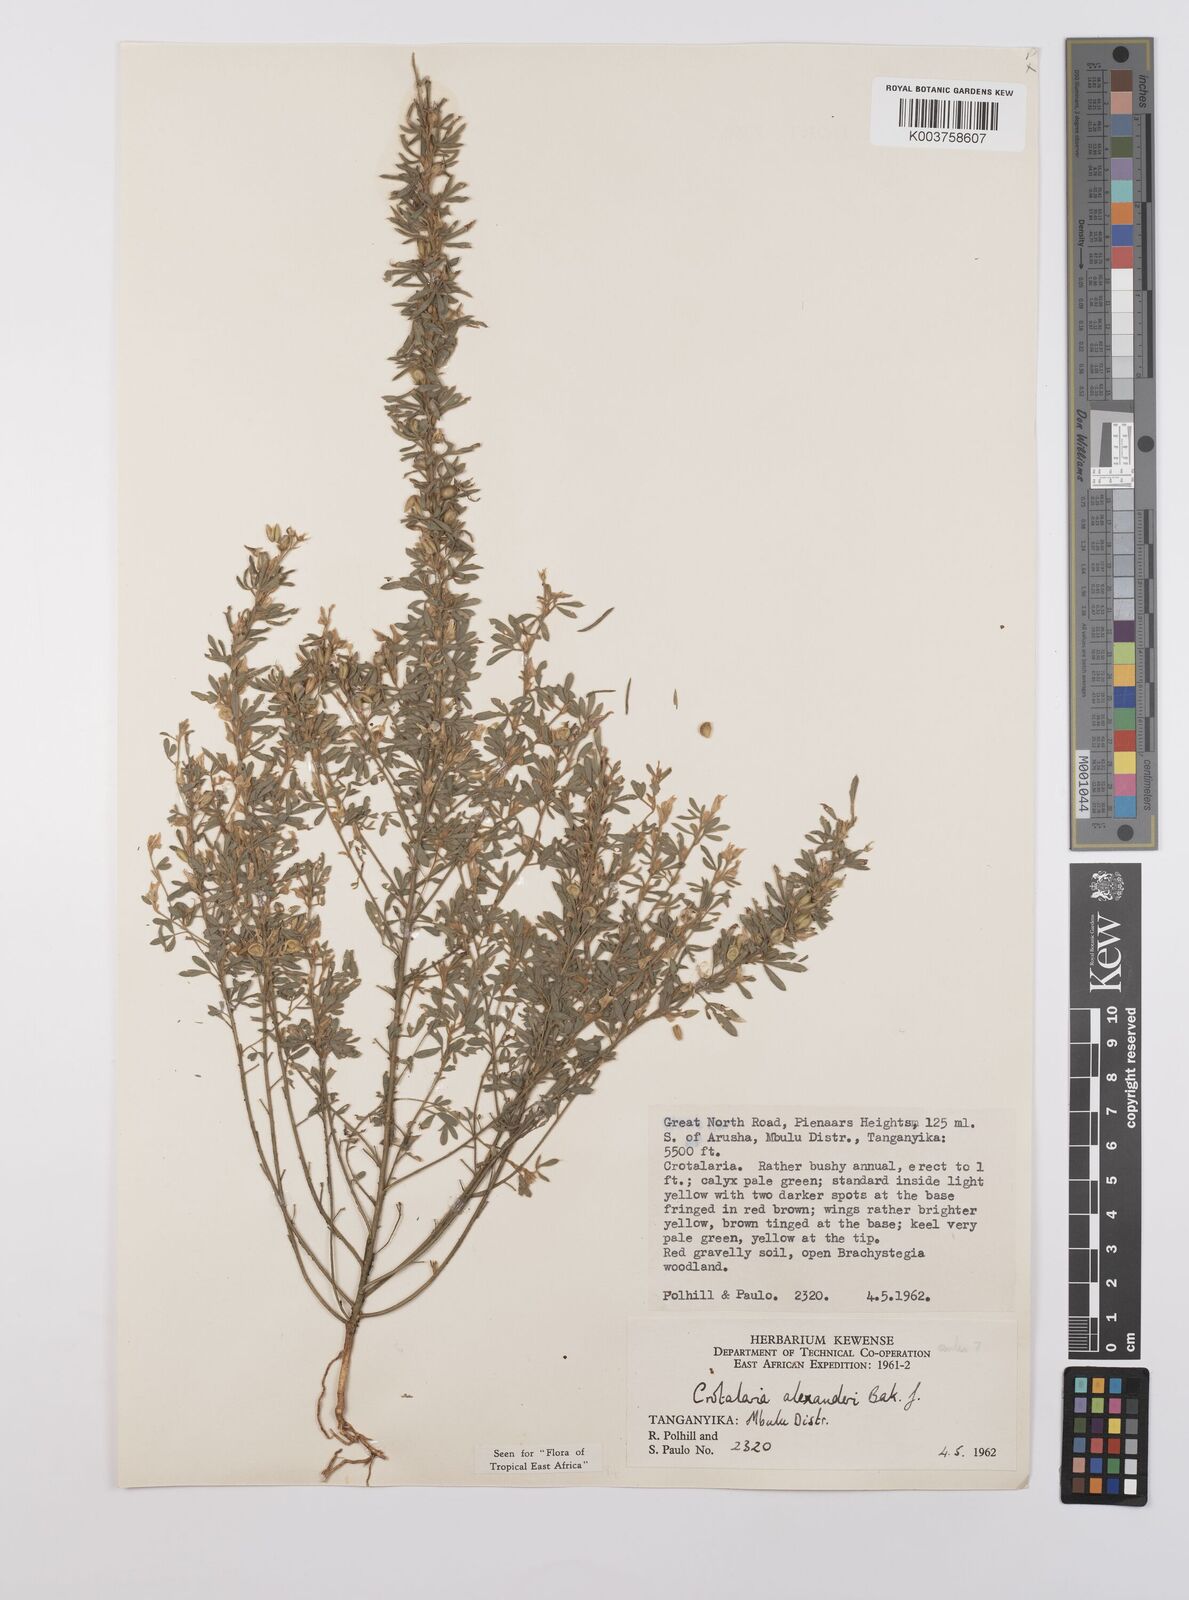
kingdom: Plantae
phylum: Tracheophyta
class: Magnoliopsida
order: Fabales
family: Fabaceae
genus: Crotalaria
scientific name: Crotalaria alexandri
